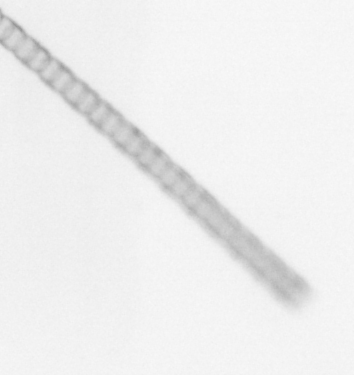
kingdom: Chromista
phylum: Ochrophyta
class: Bacillariophyceae
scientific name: Bacillariophyceae
